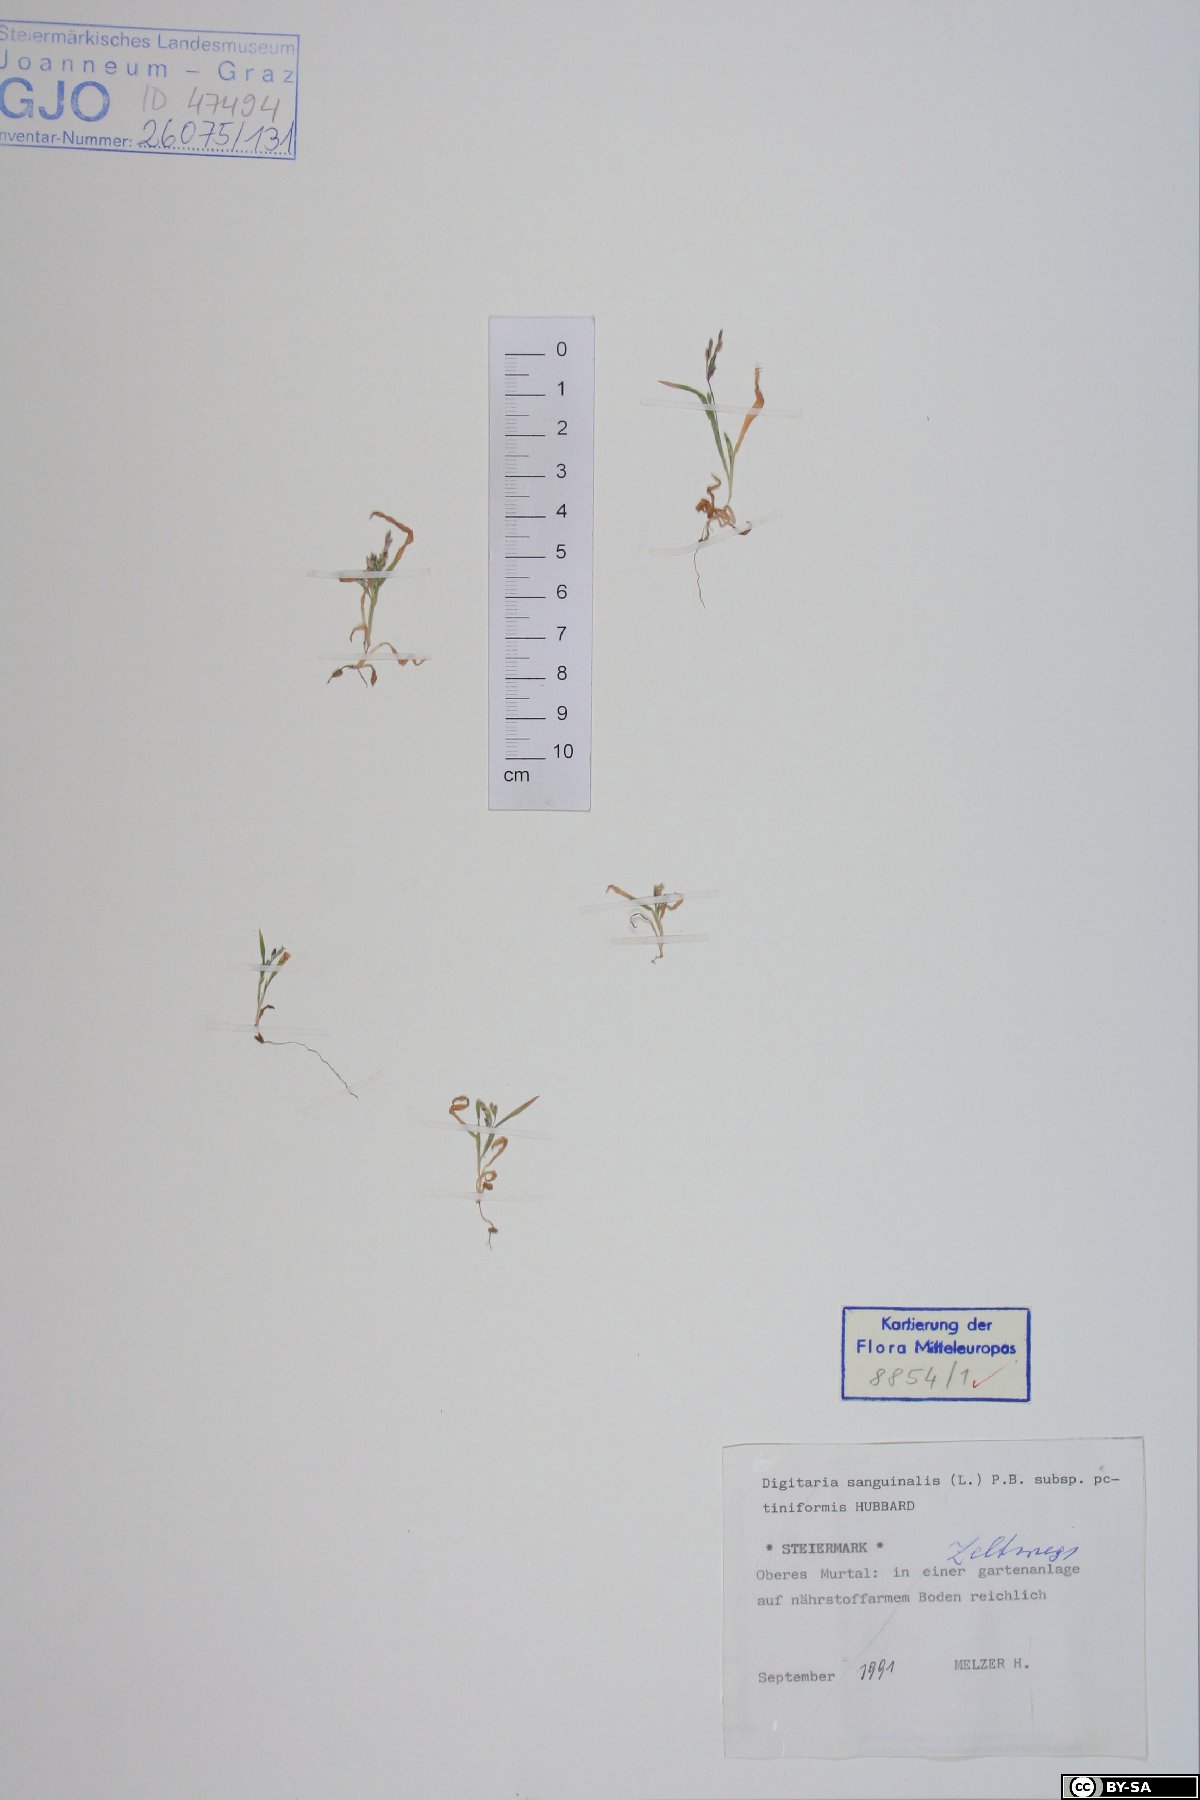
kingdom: Plantae
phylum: Tracheophyta
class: Liliopsida
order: Poales
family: Poaceae
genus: Digitaria
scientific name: Digitaria sanguinalis
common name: Hairy crabgrass
